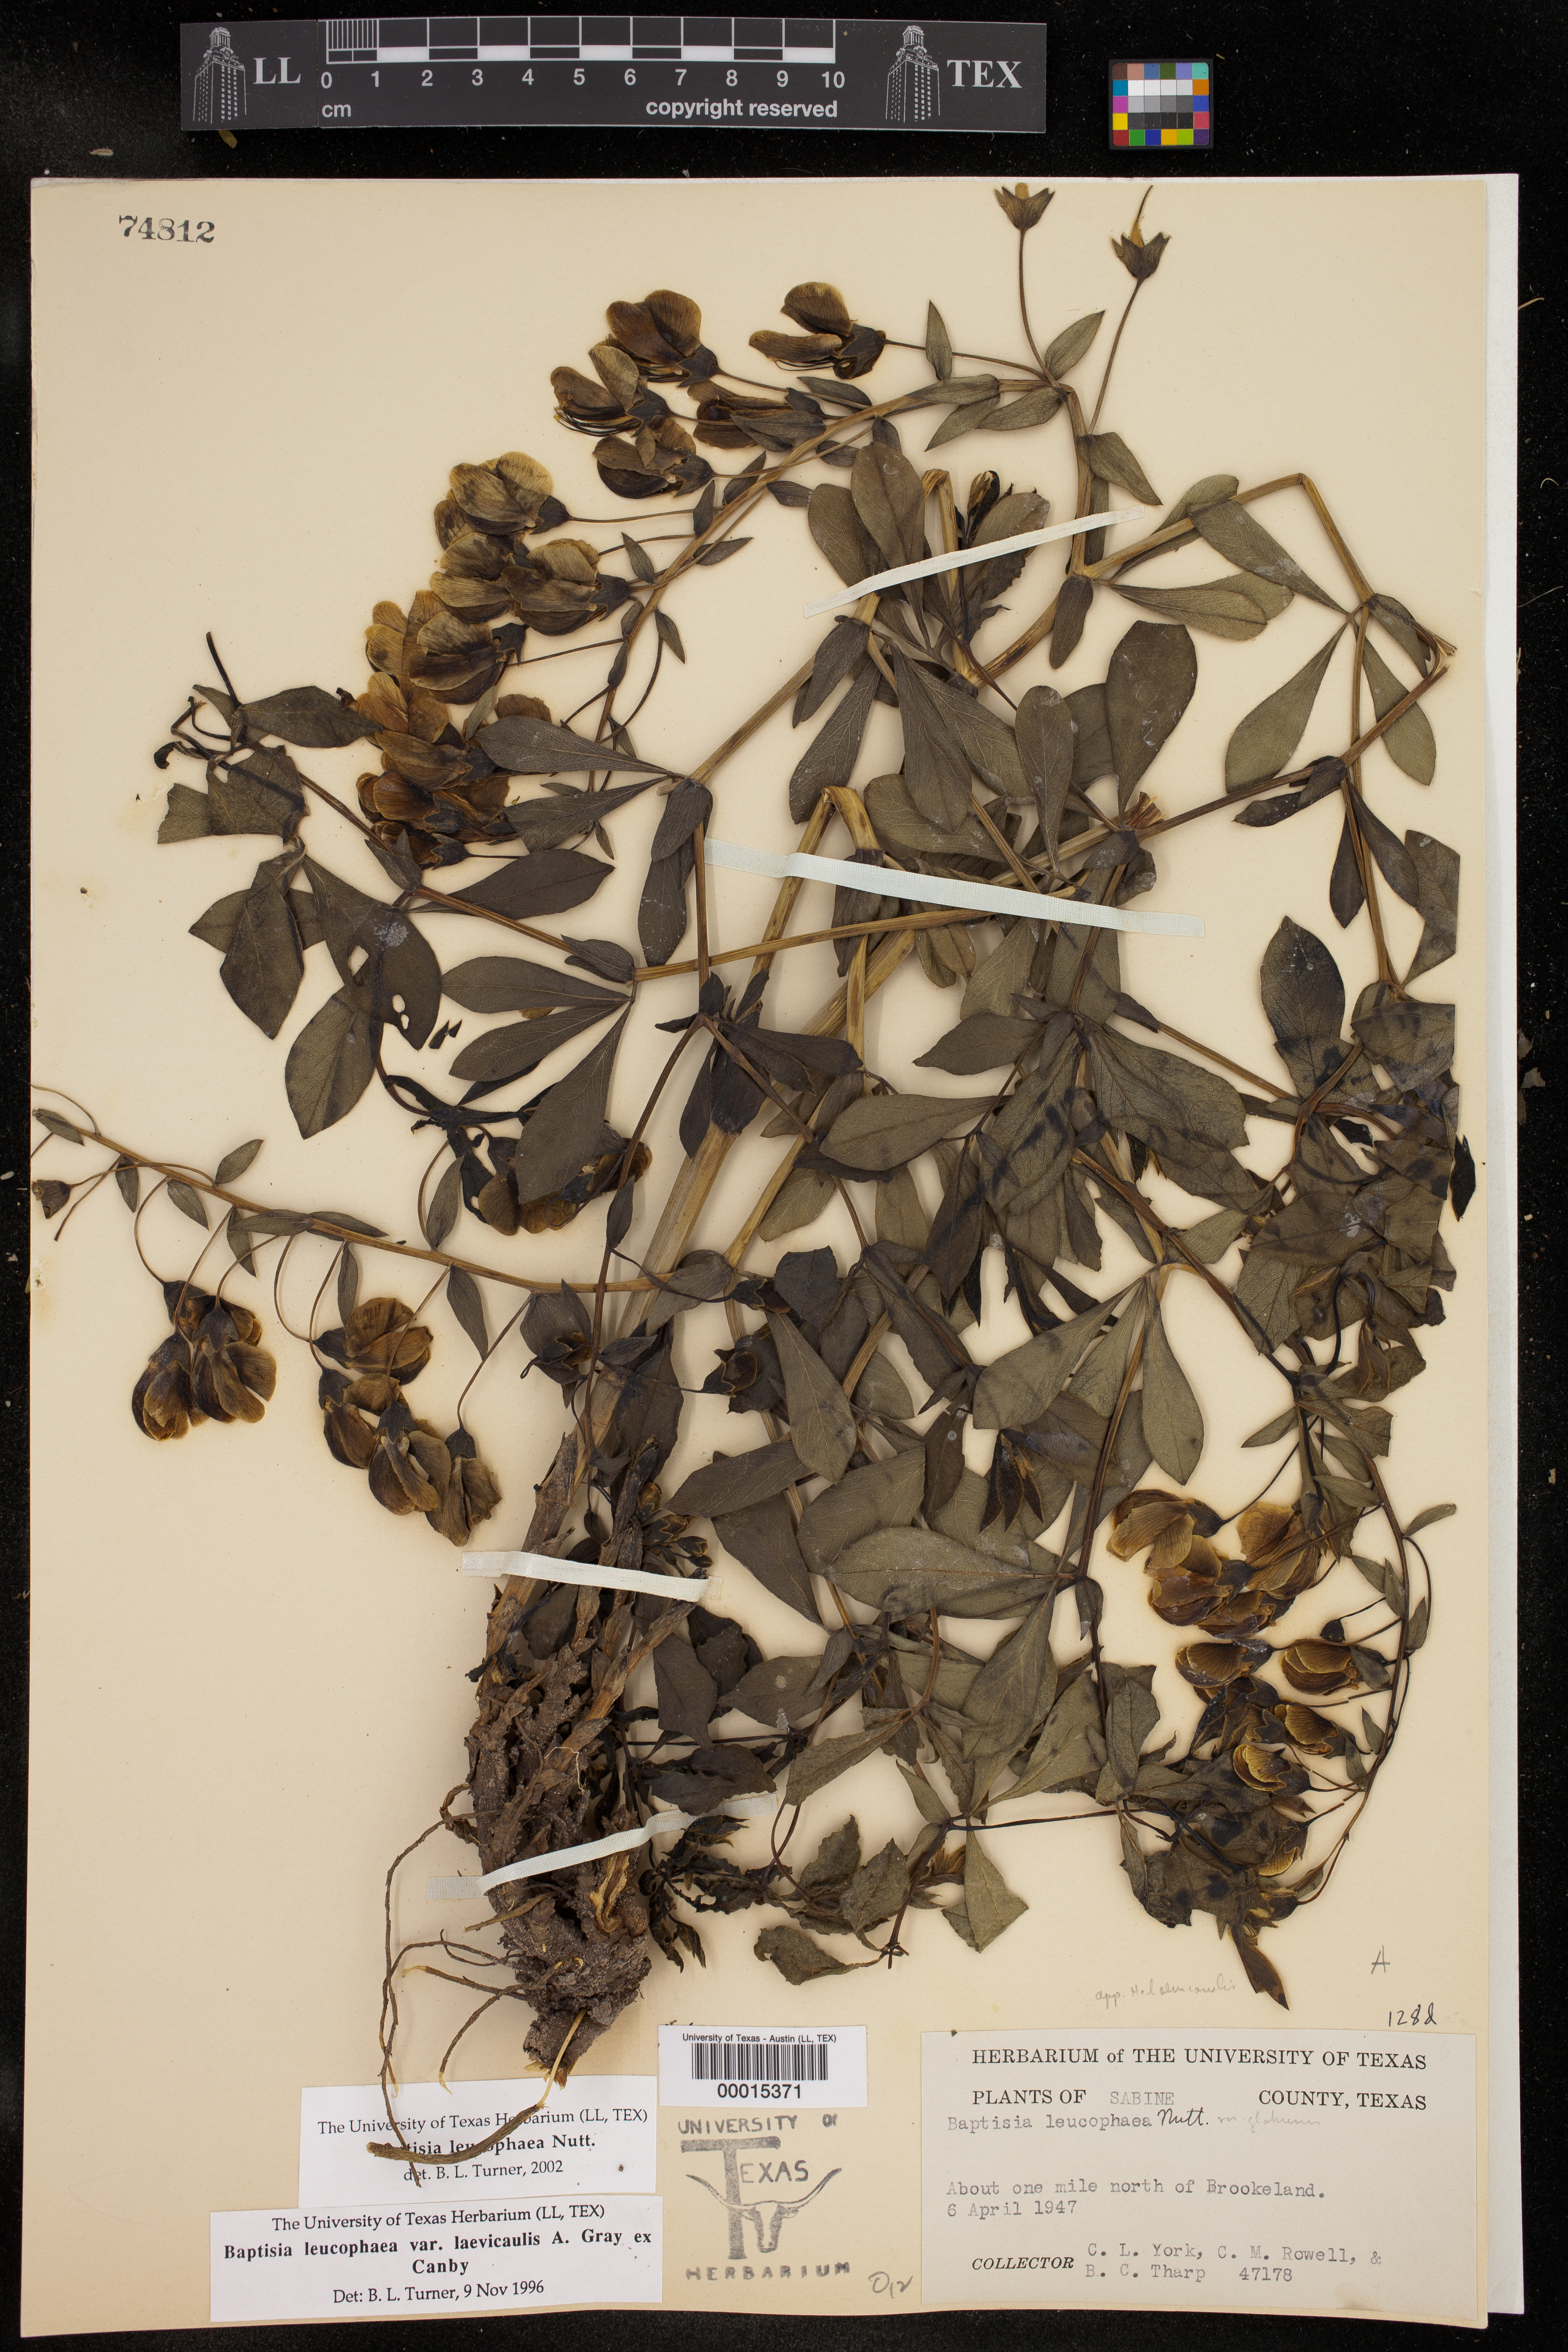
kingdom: Plantae
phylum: Tracheophyta
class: Magnoliopsida
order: Fabales
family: Fabaceae
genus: Baptisia
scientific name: Baptisia bracteata
